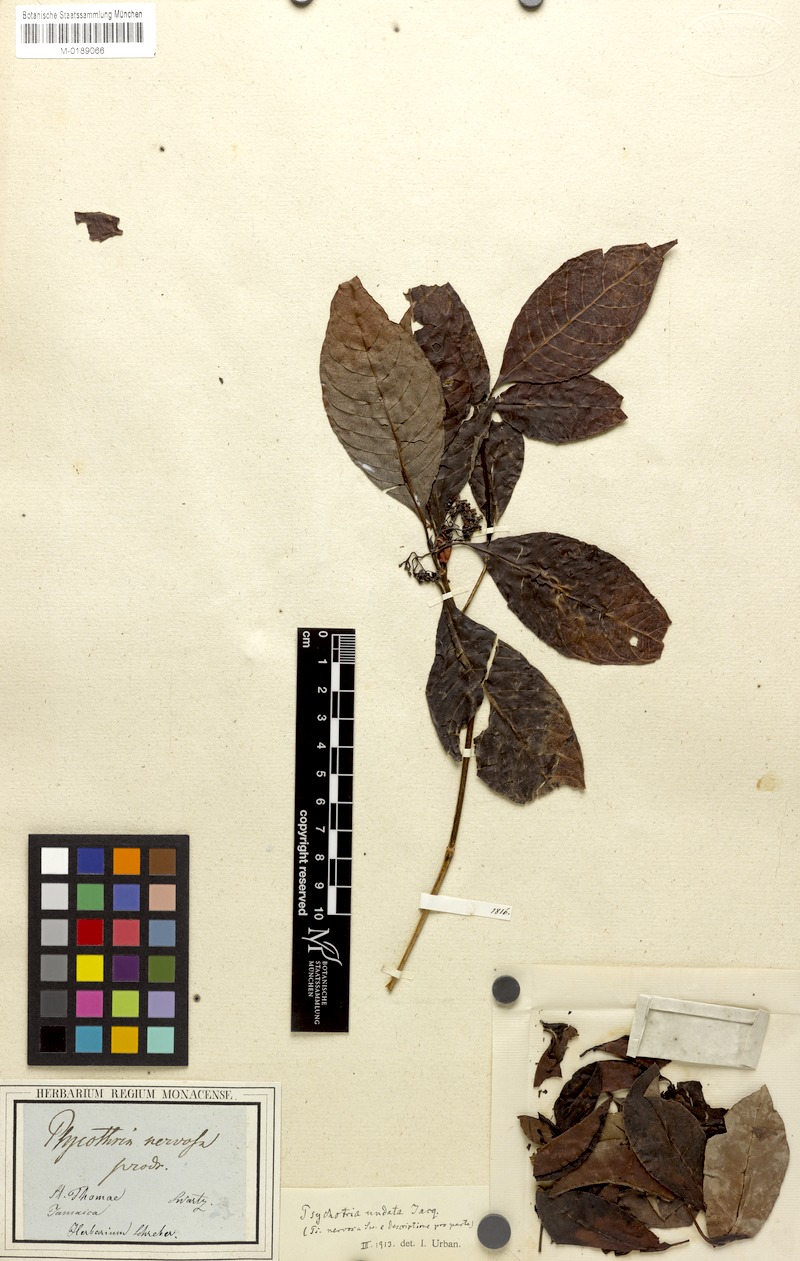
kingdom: Plantae
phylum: Tracheophyta
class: Magnoliopsida
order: Gentianales
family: Rubiaceae
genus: Psychotria
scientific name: Psychotria nervosa
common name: Bastard cankerberry
